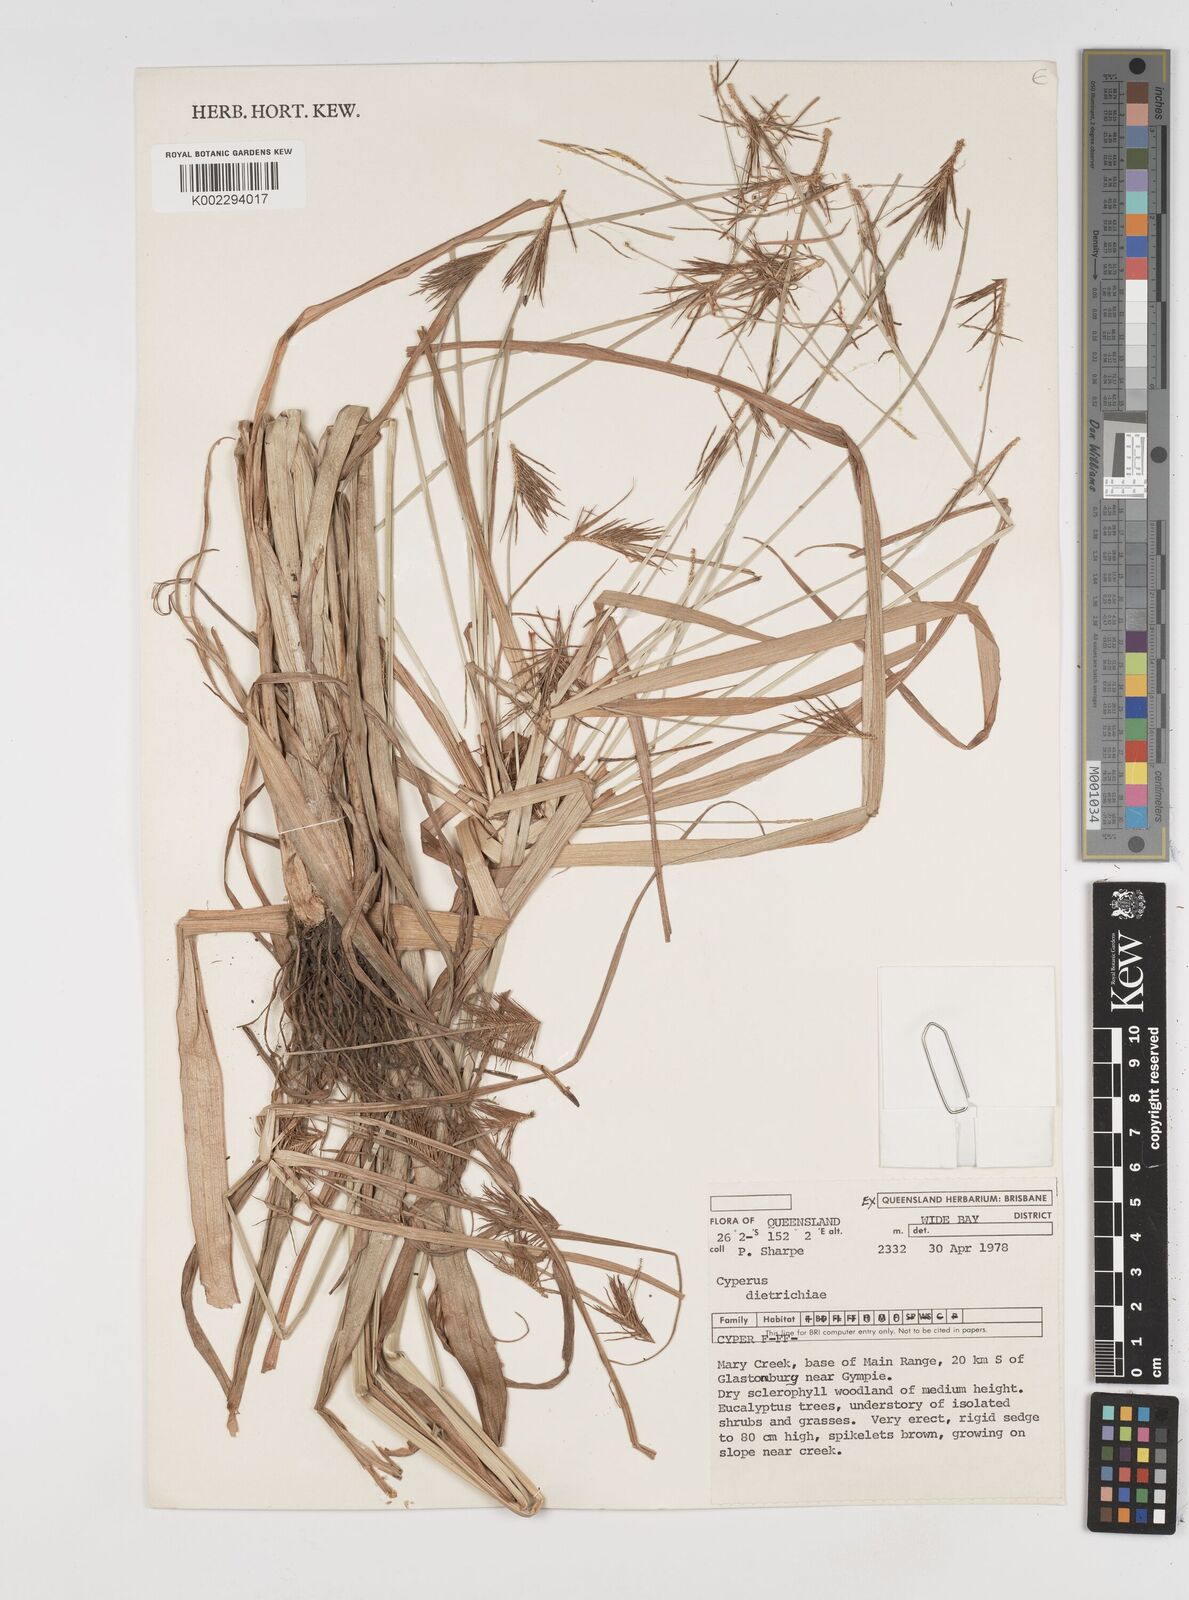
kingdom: Plantae
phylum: Tracheophyta
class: Liliopsida
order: Poales
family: Cyperaceae
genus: Cyperus
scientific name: Cyperus dietrichiae
